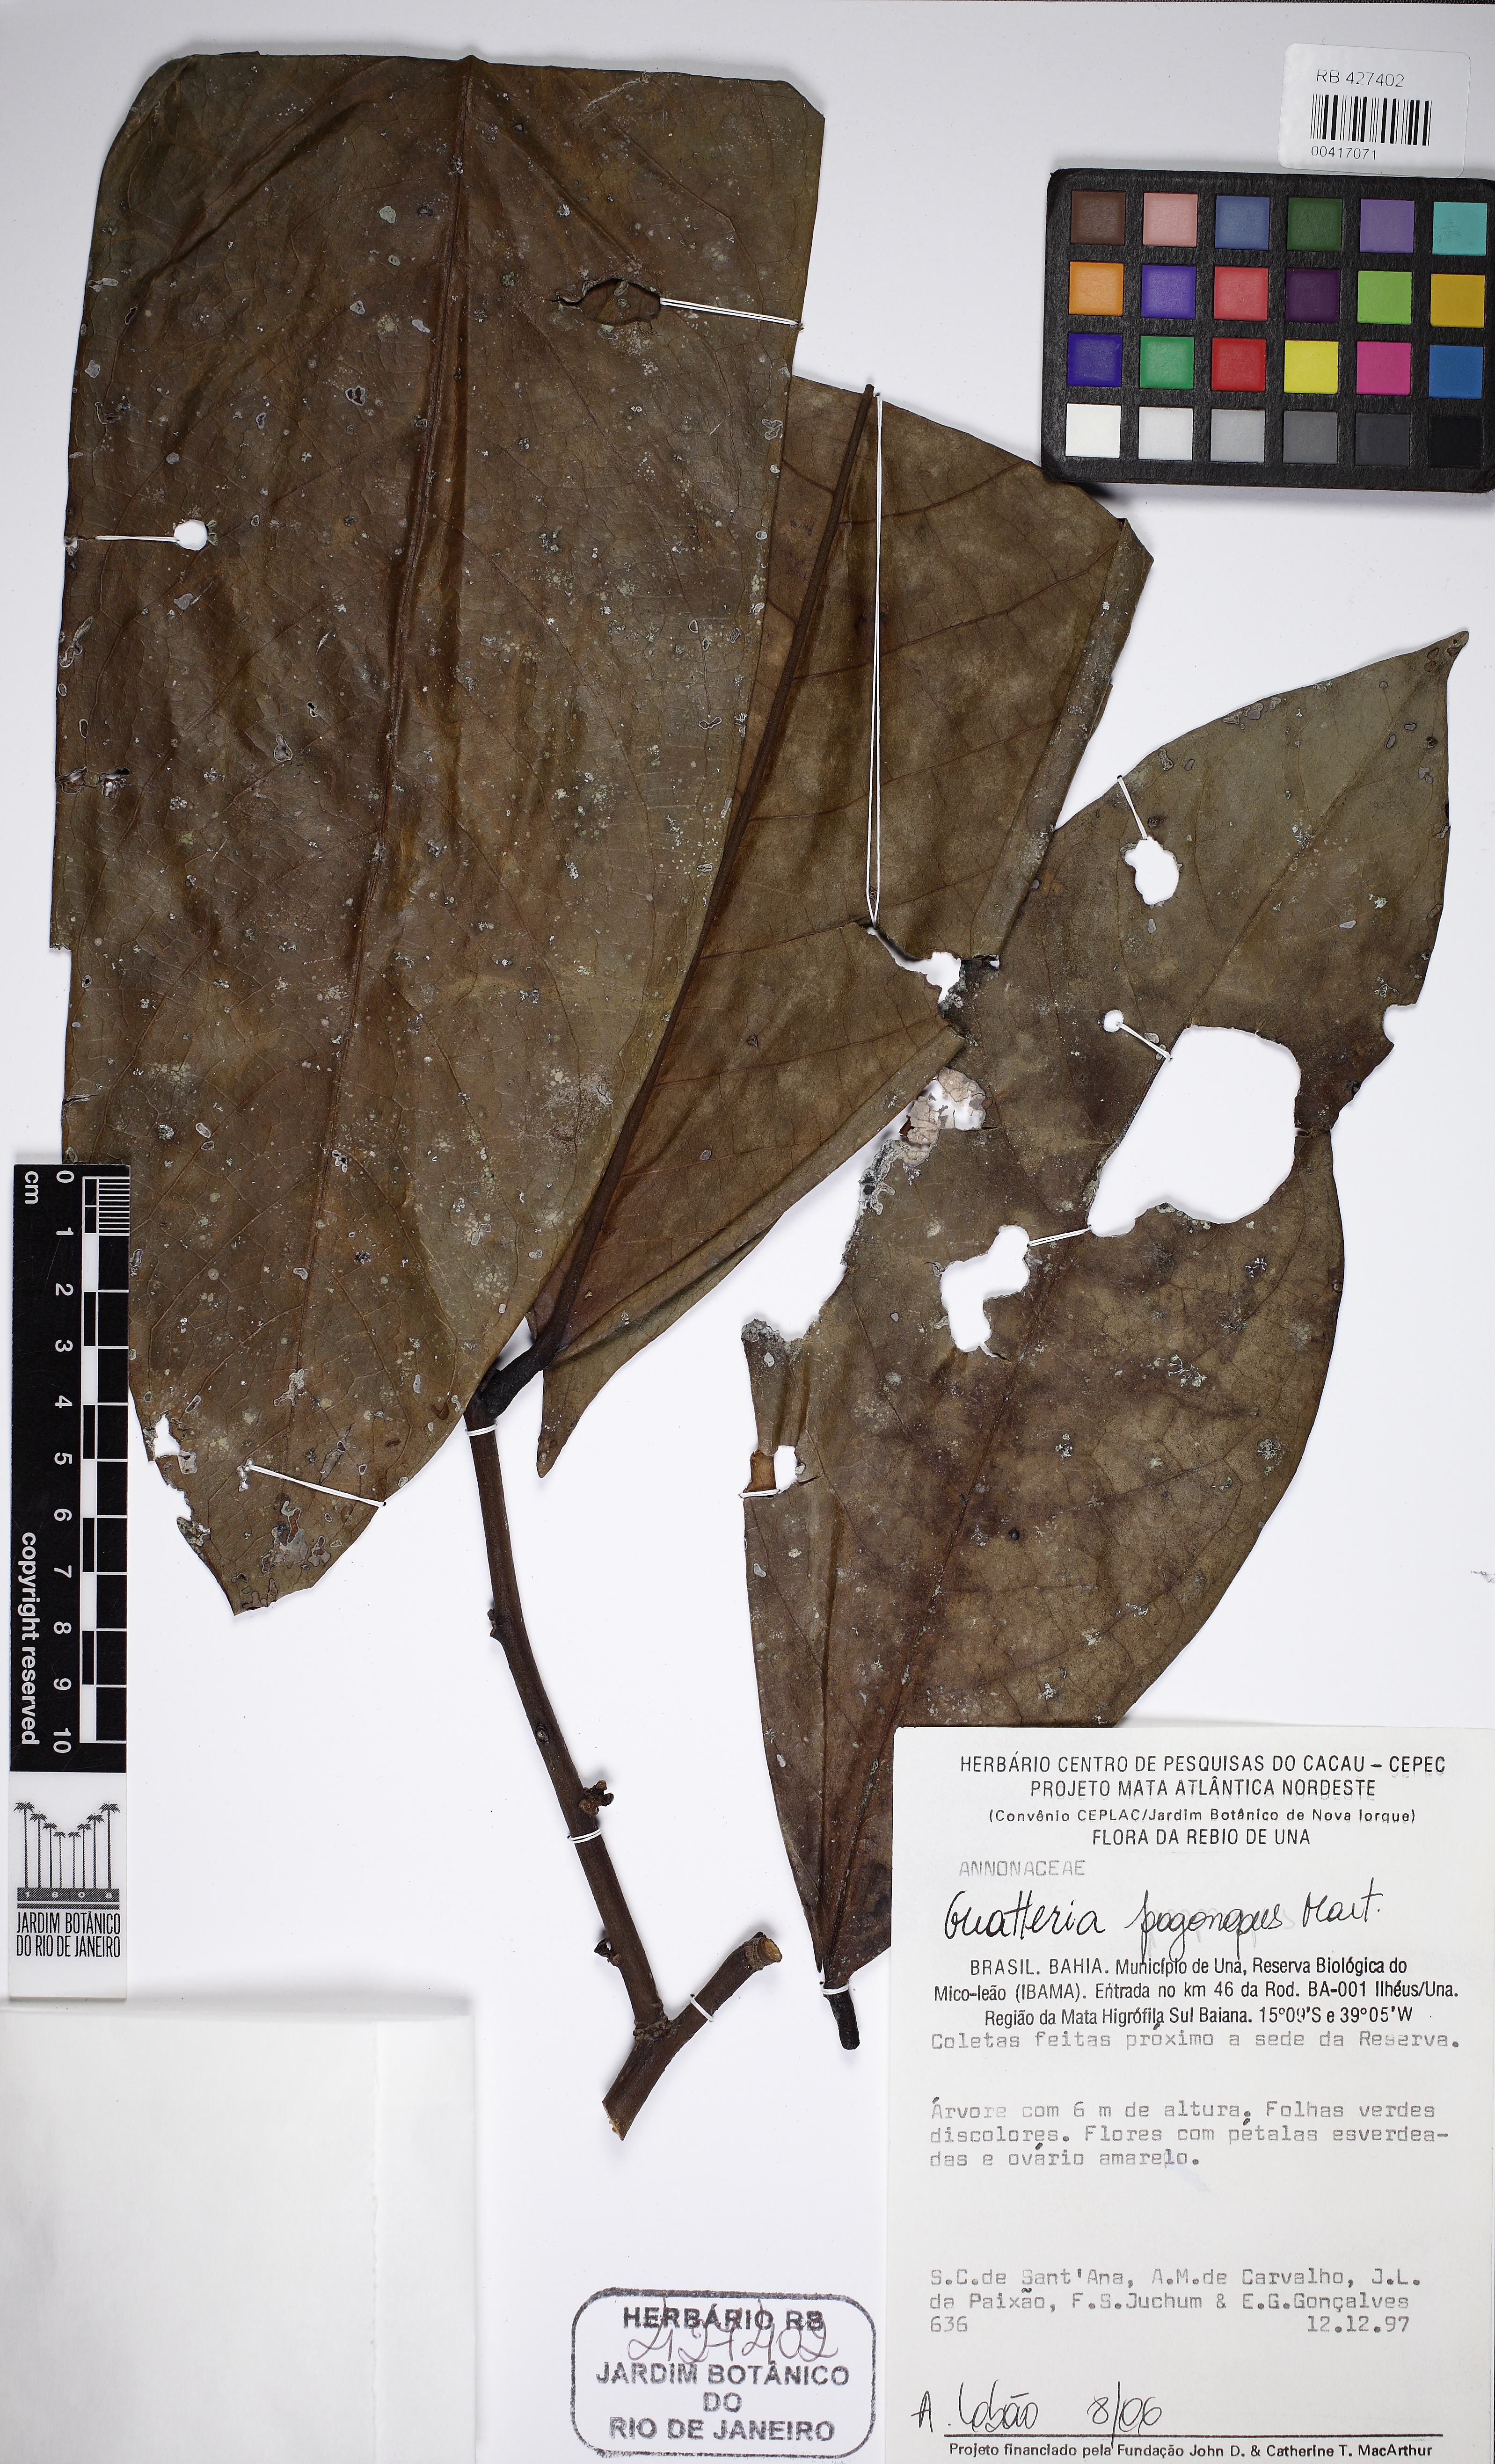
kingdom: Plantae
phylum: Tracheophyta
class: Magnoliopsida
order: Magnoliales
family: Annonaceae
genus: Guatteria
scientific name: Guatteria pogonopus
